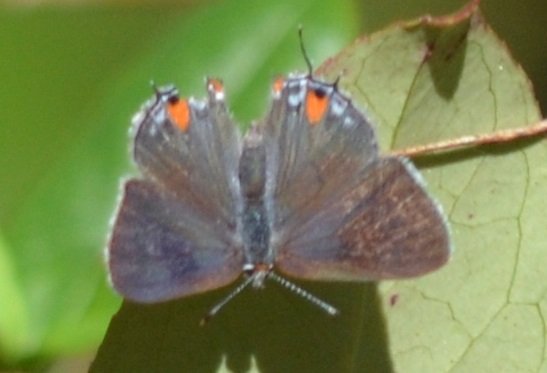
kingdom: Animalia
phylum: Arthropoda
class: Insecta
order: Lepidoptera
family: Lycaenidae
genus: Strymon
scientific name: Strymon melinus
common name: Gray Hairstreak
